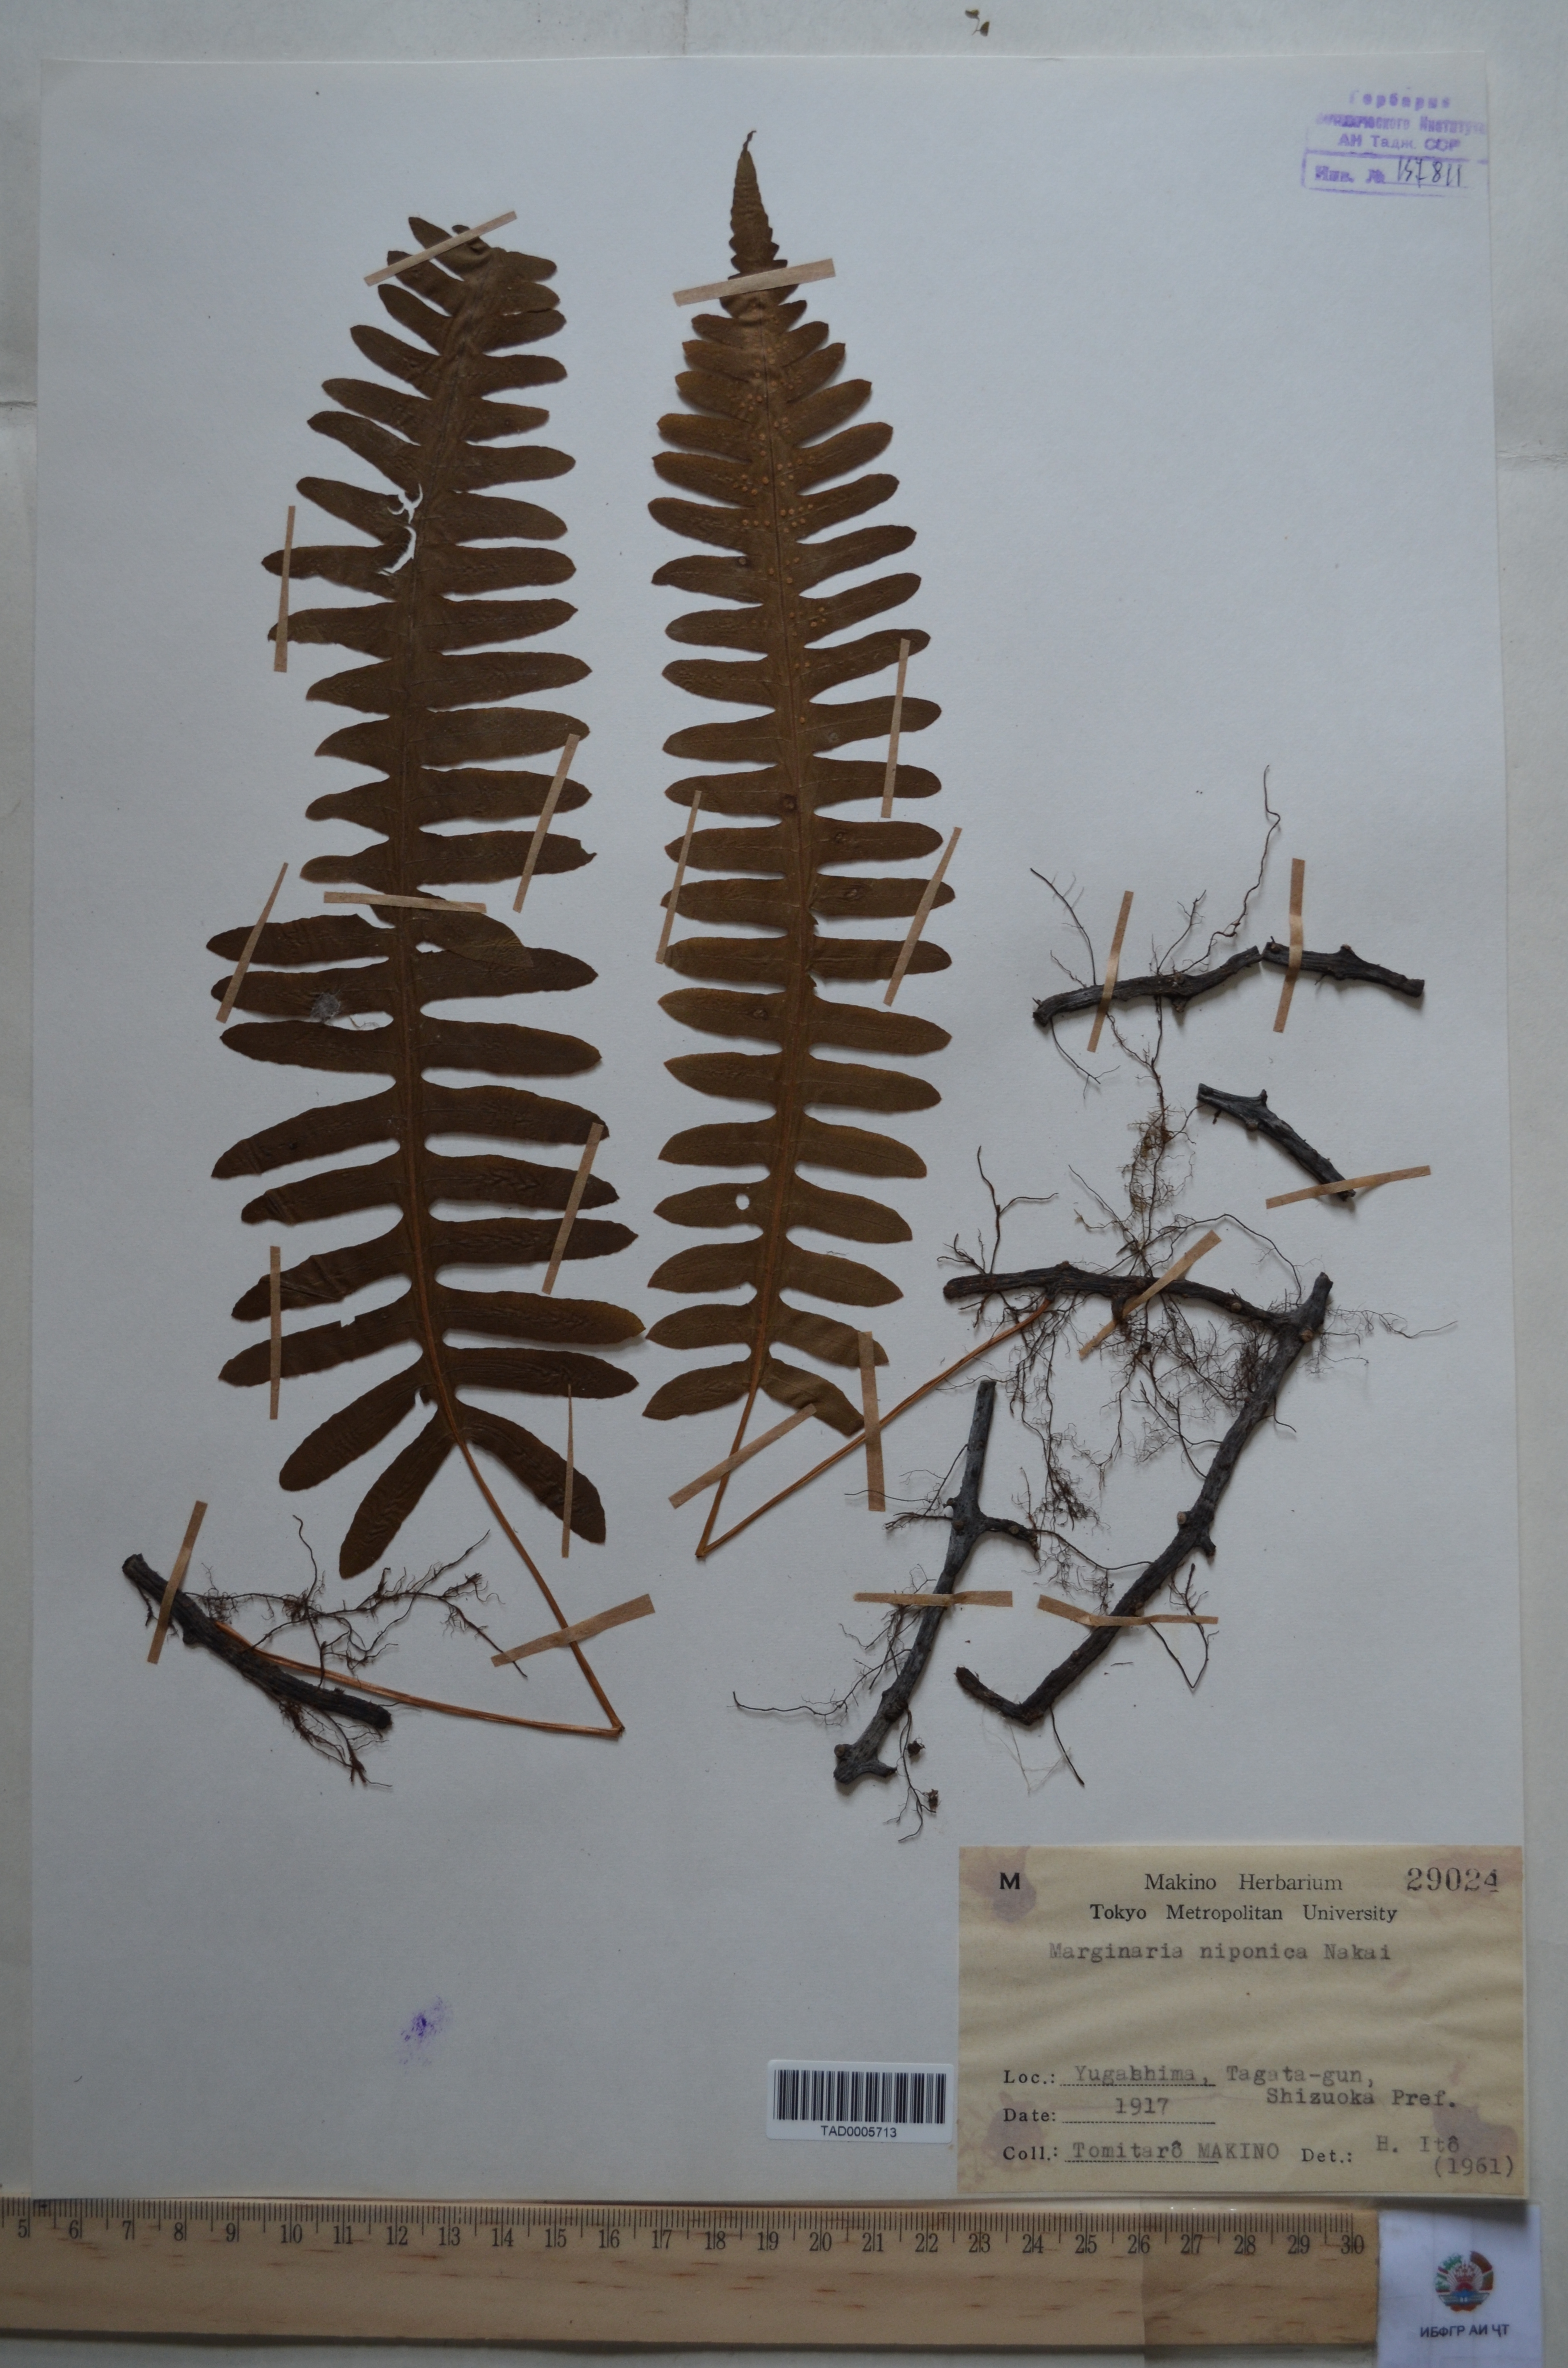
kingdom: Plantae
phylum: Tracheophyta
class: Polypodiopsida
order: Polypodiales
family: Polypodiaceae
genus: Goniophlebium
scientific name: Goniophlebium niponicum
